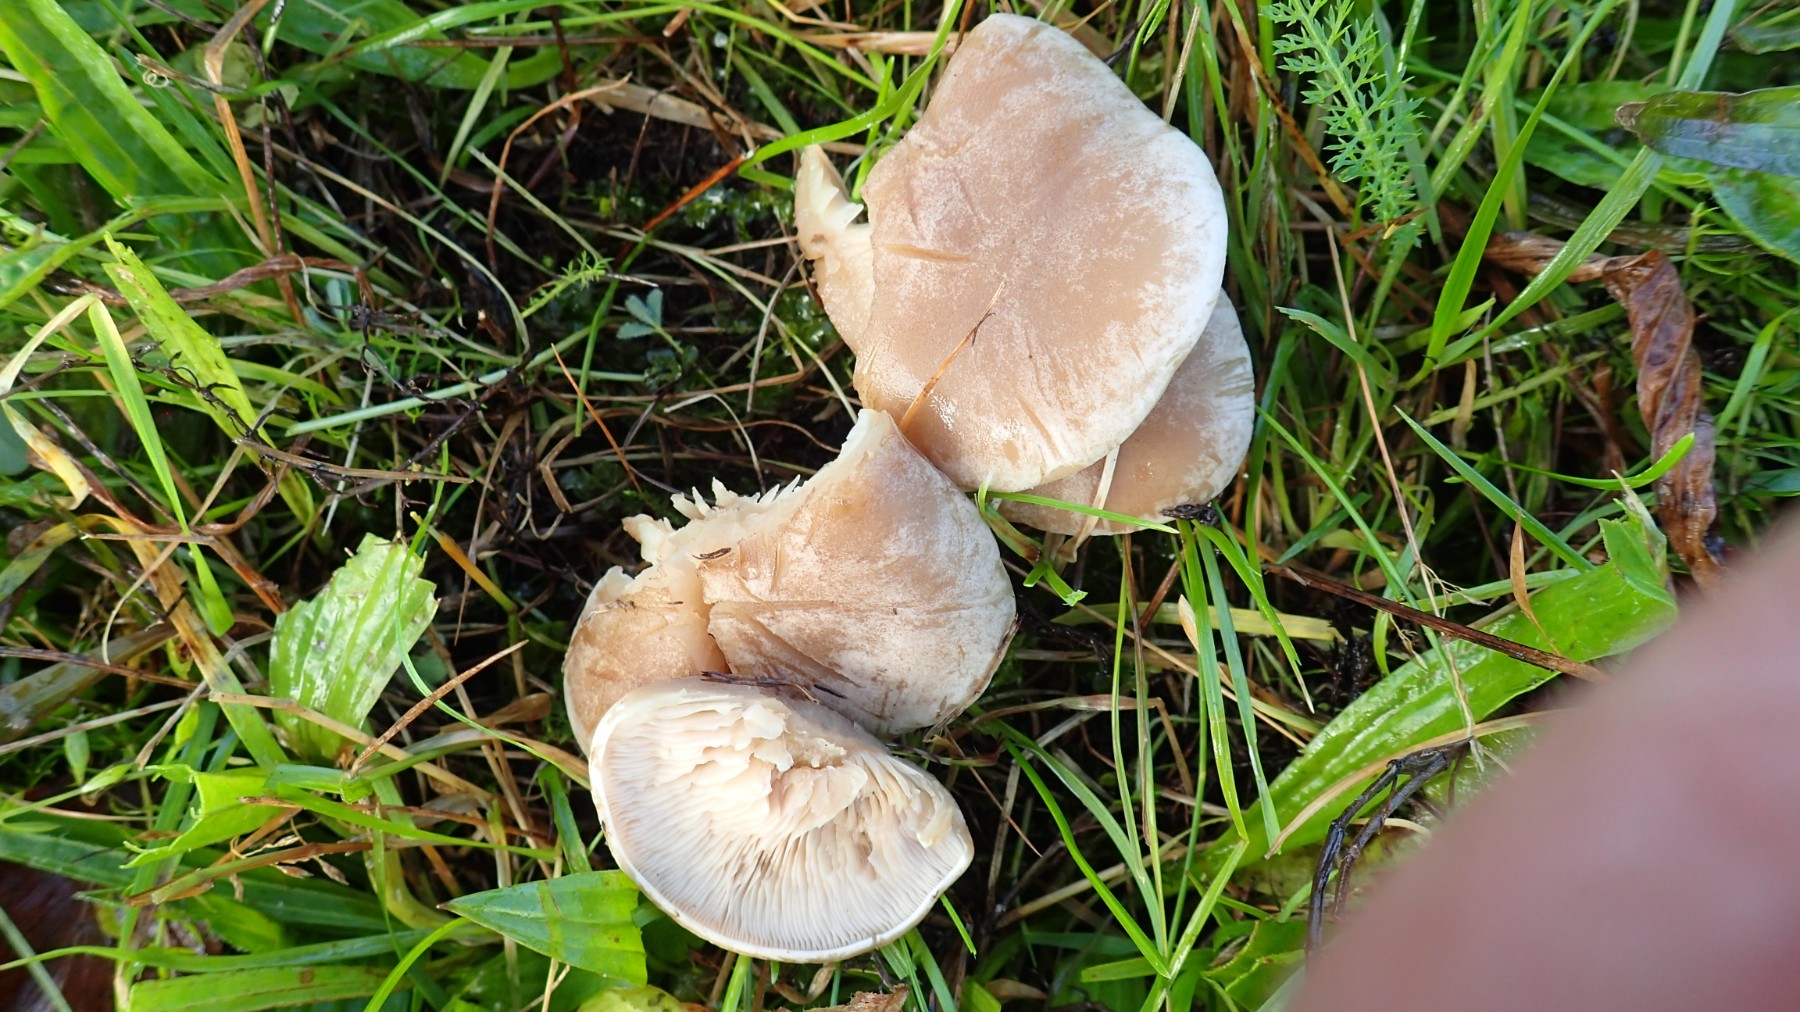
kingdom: Fungi
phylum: Basidiomycota
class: Agaricomycetes
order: Agaricales
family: Tricholomataceae
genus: Clitocybe
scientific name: Clitocybe rivulosa
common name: eng-tragthat
